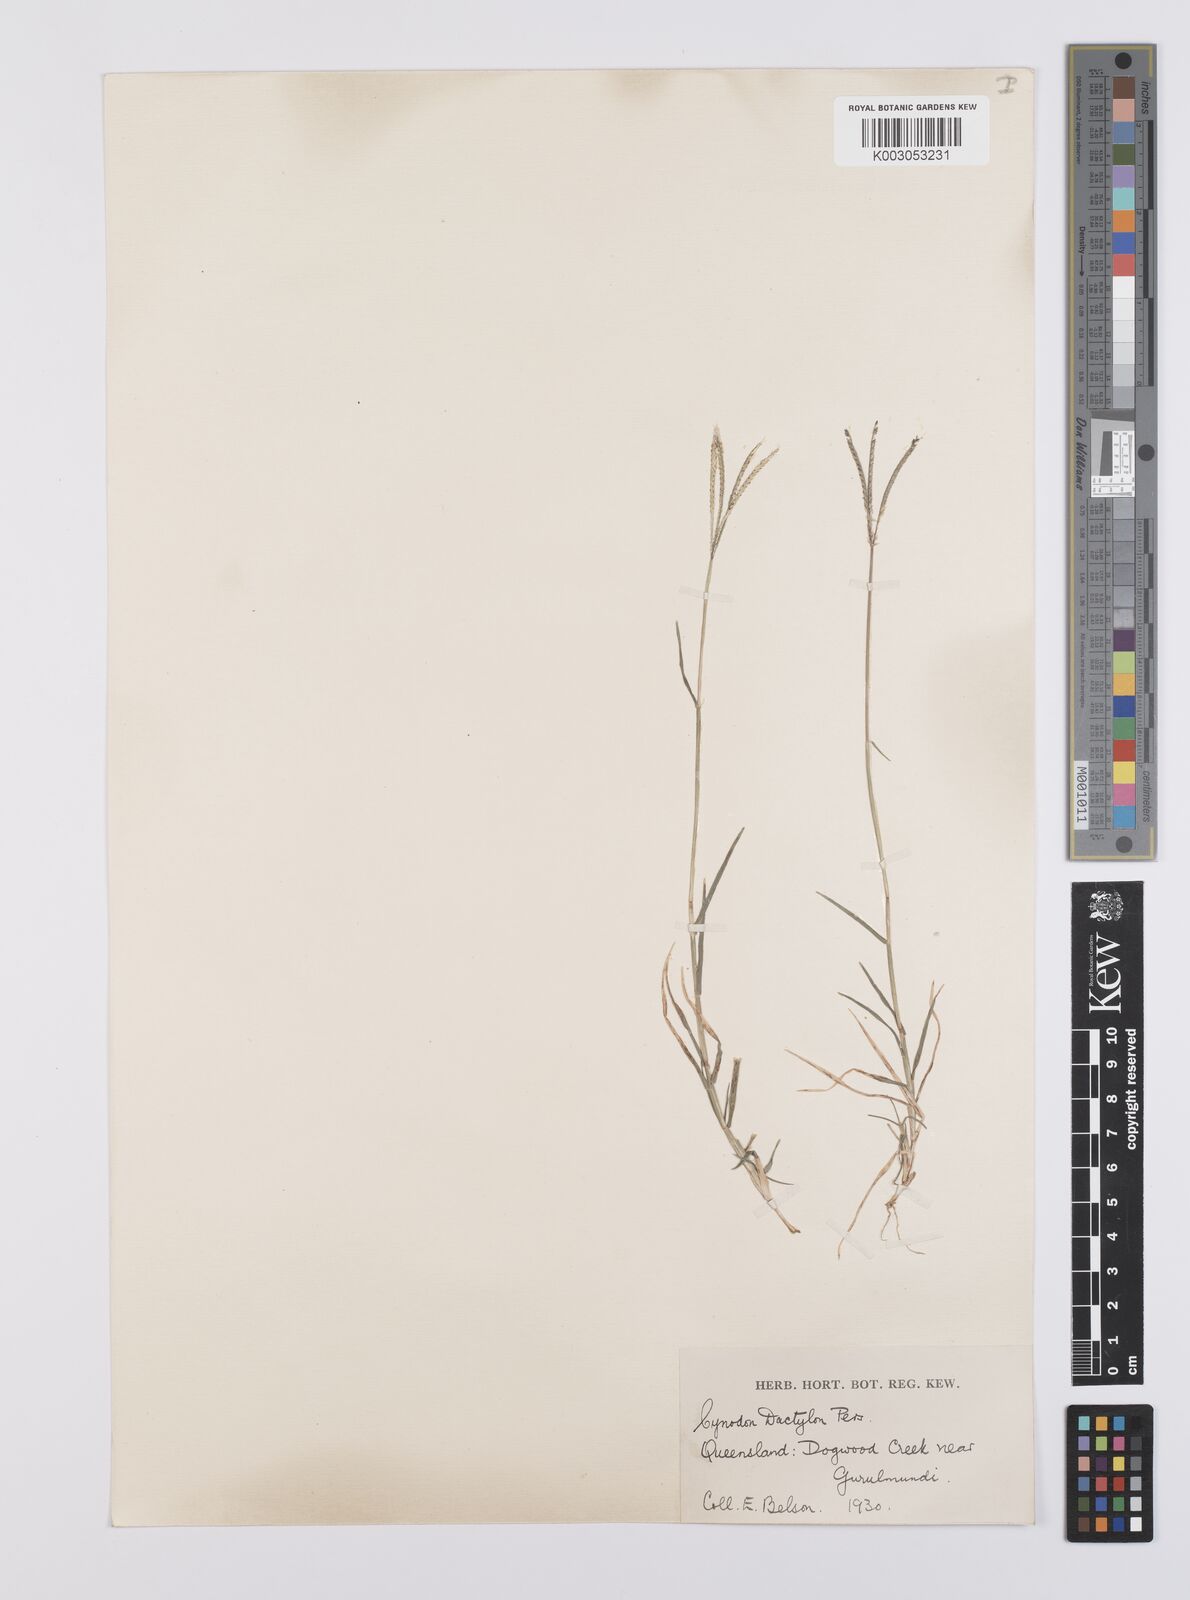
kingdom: Plantae
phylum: Tracheophyta
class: Liliopsida
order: Poales
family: Poaceae
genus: Cynodon
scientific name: Cynodon dactylon
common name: Bermuda grass
